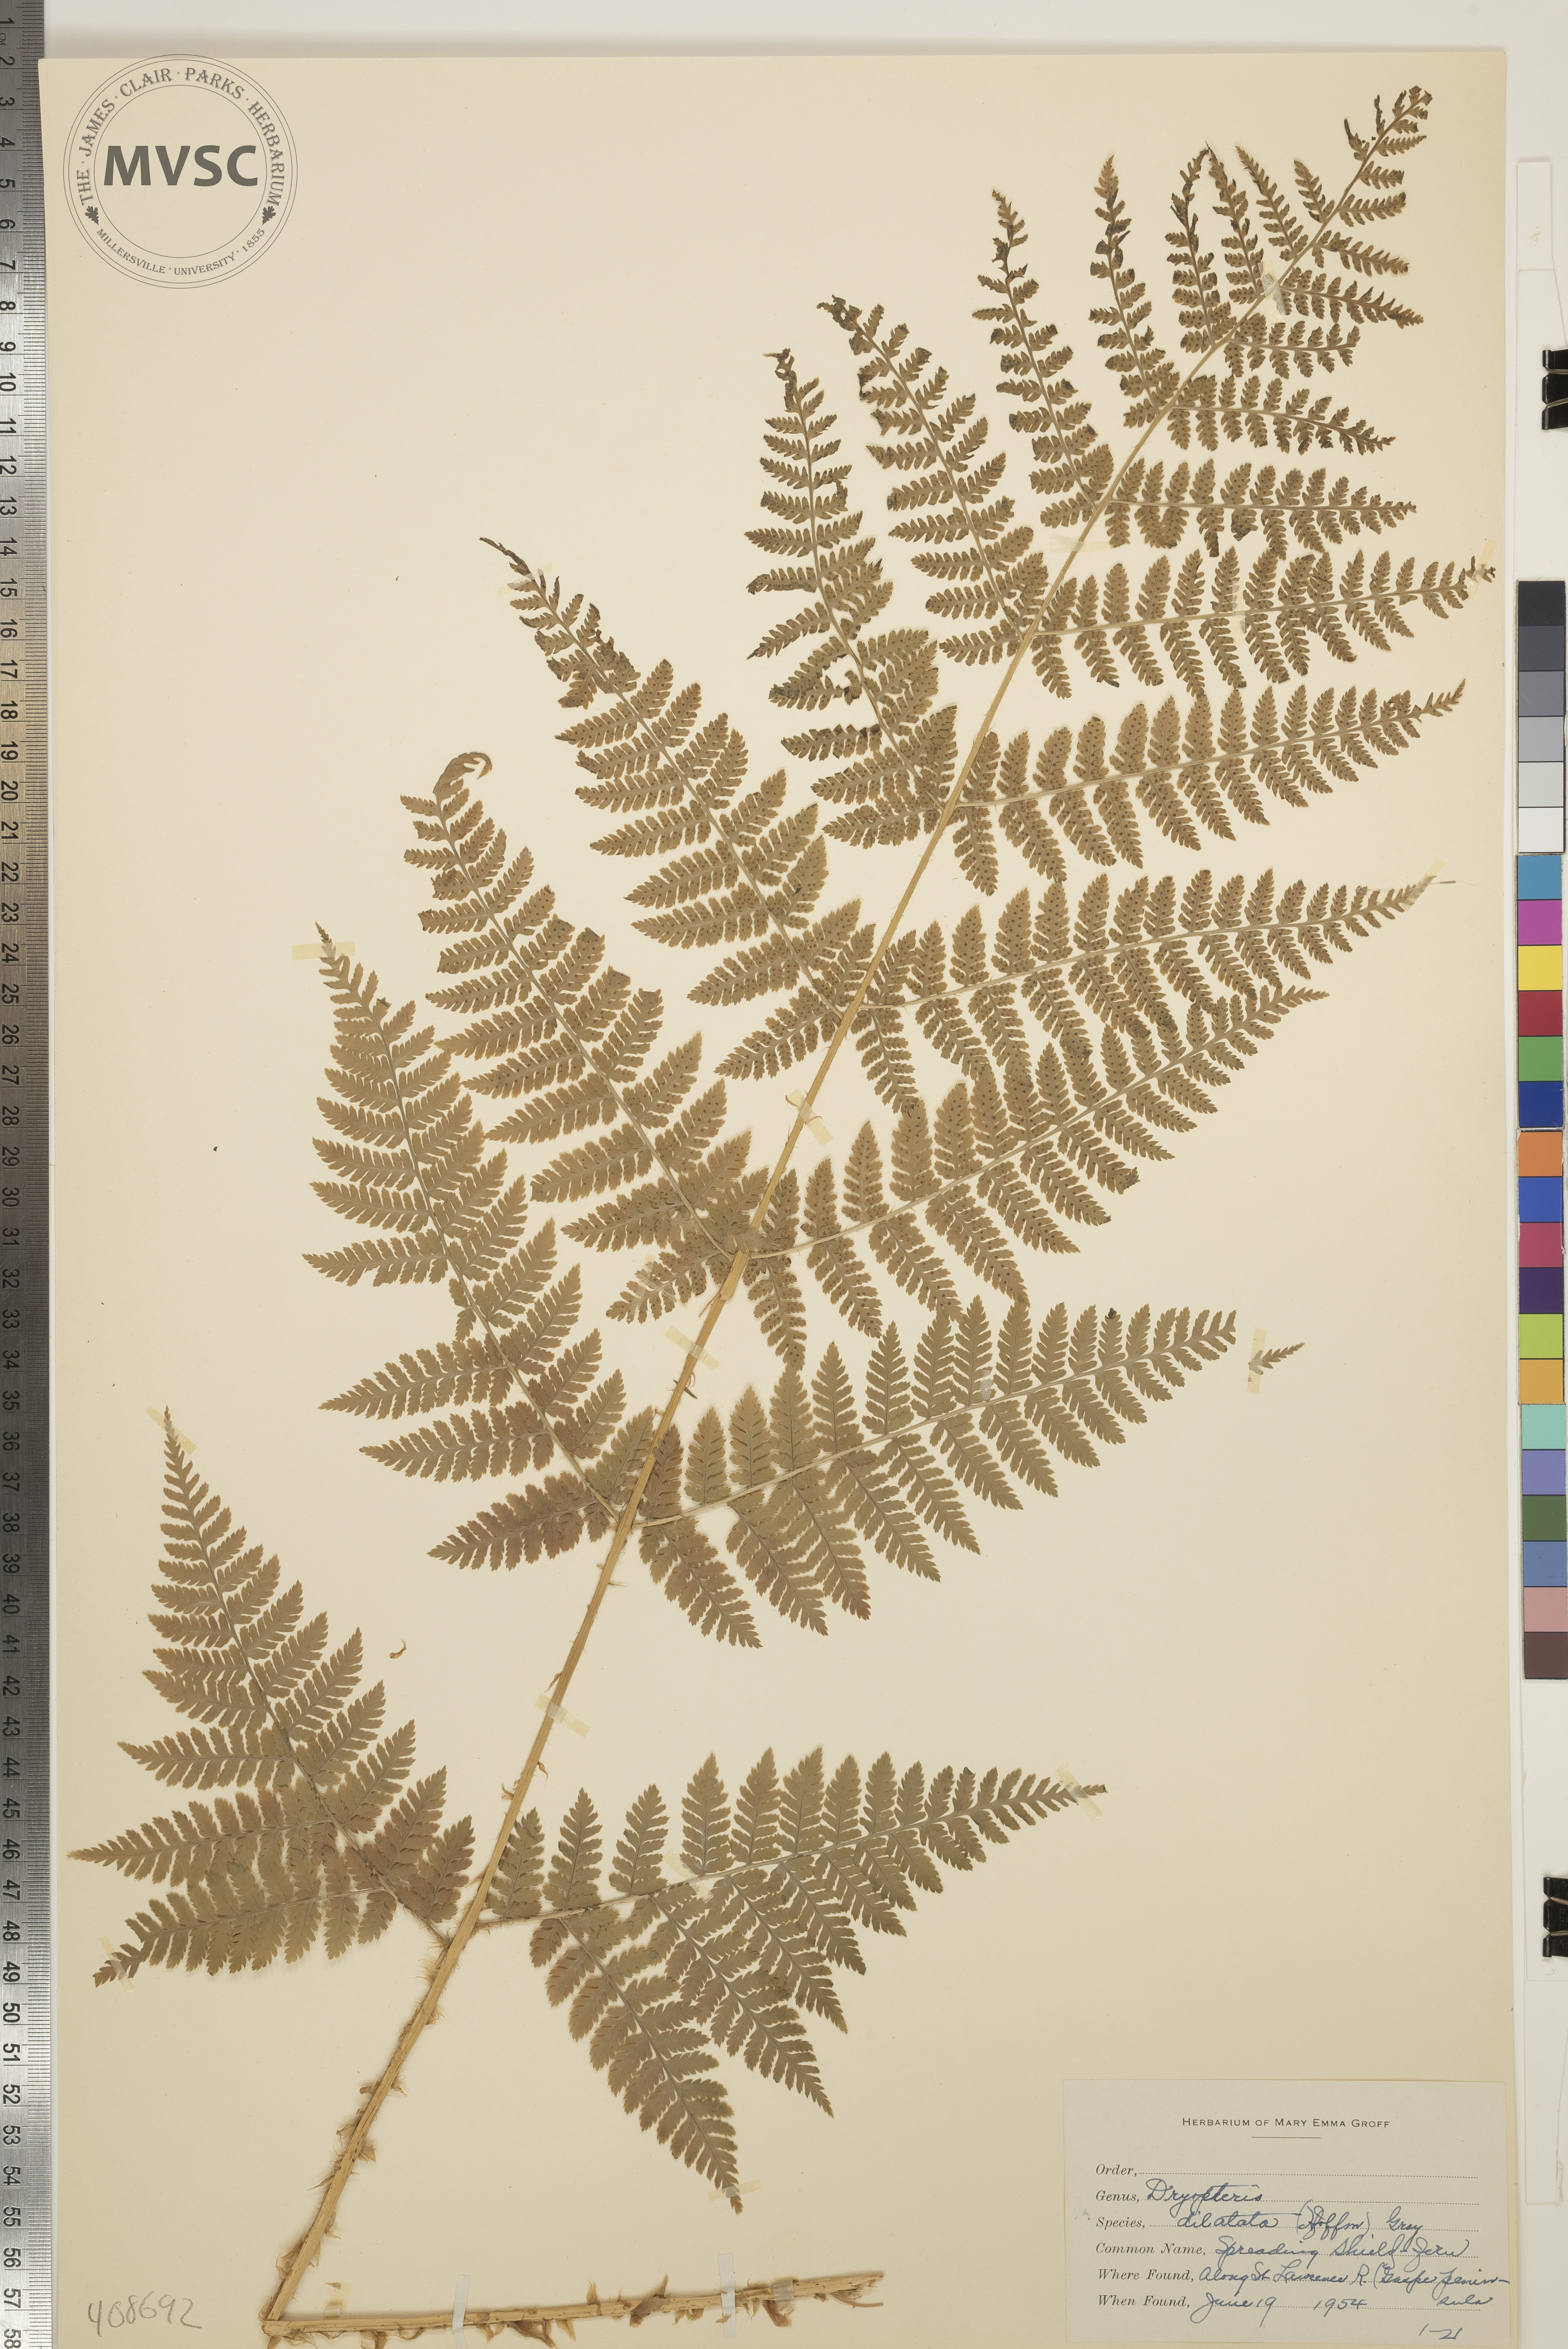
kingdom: Plantae
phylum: Tracheophyta
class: Polypodiopsida
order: Polypodiales
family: Dryopteridaceae
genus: Dryopteris
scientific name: Dryopteris dilatata
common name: Spreading Shield Fern
